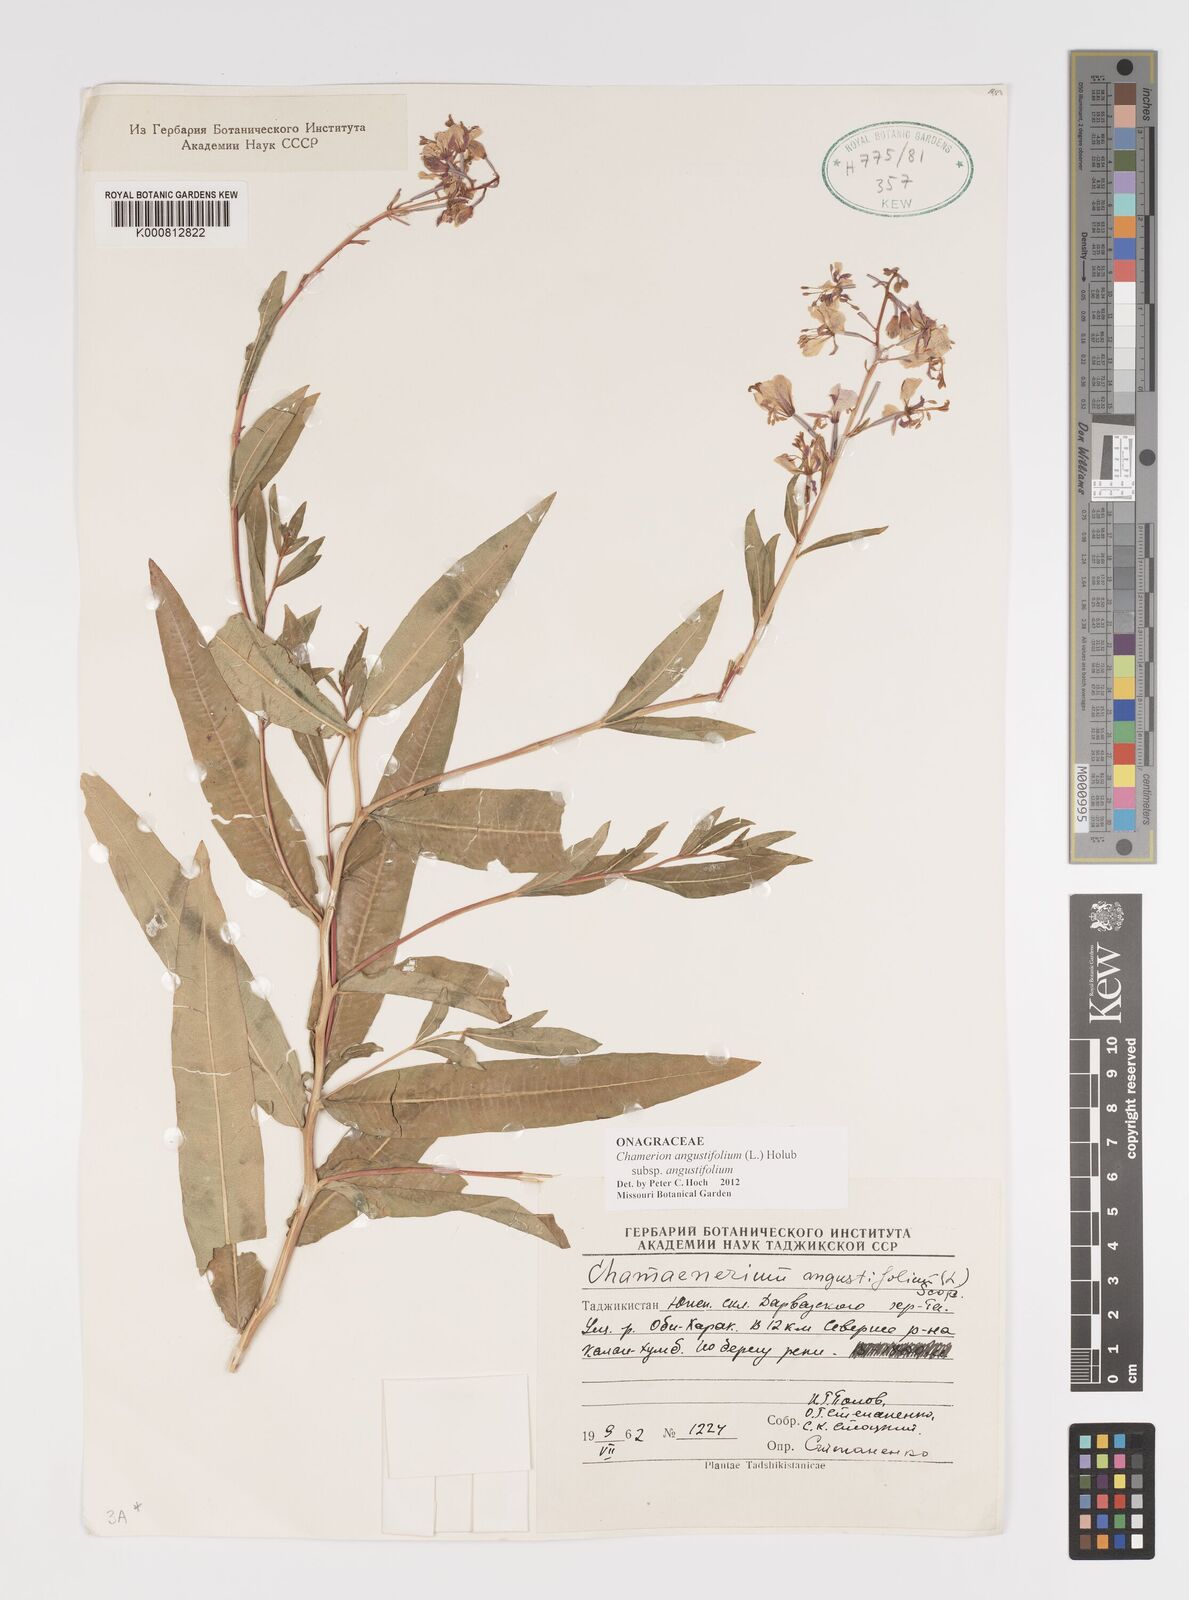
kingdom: Plantae
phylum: Tracheophyta
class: Magnoliopsida
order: Myrtales
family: Onagraceae
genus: Chamaenerion
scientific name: Chamaenerion angustifolium
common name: Fireweed
